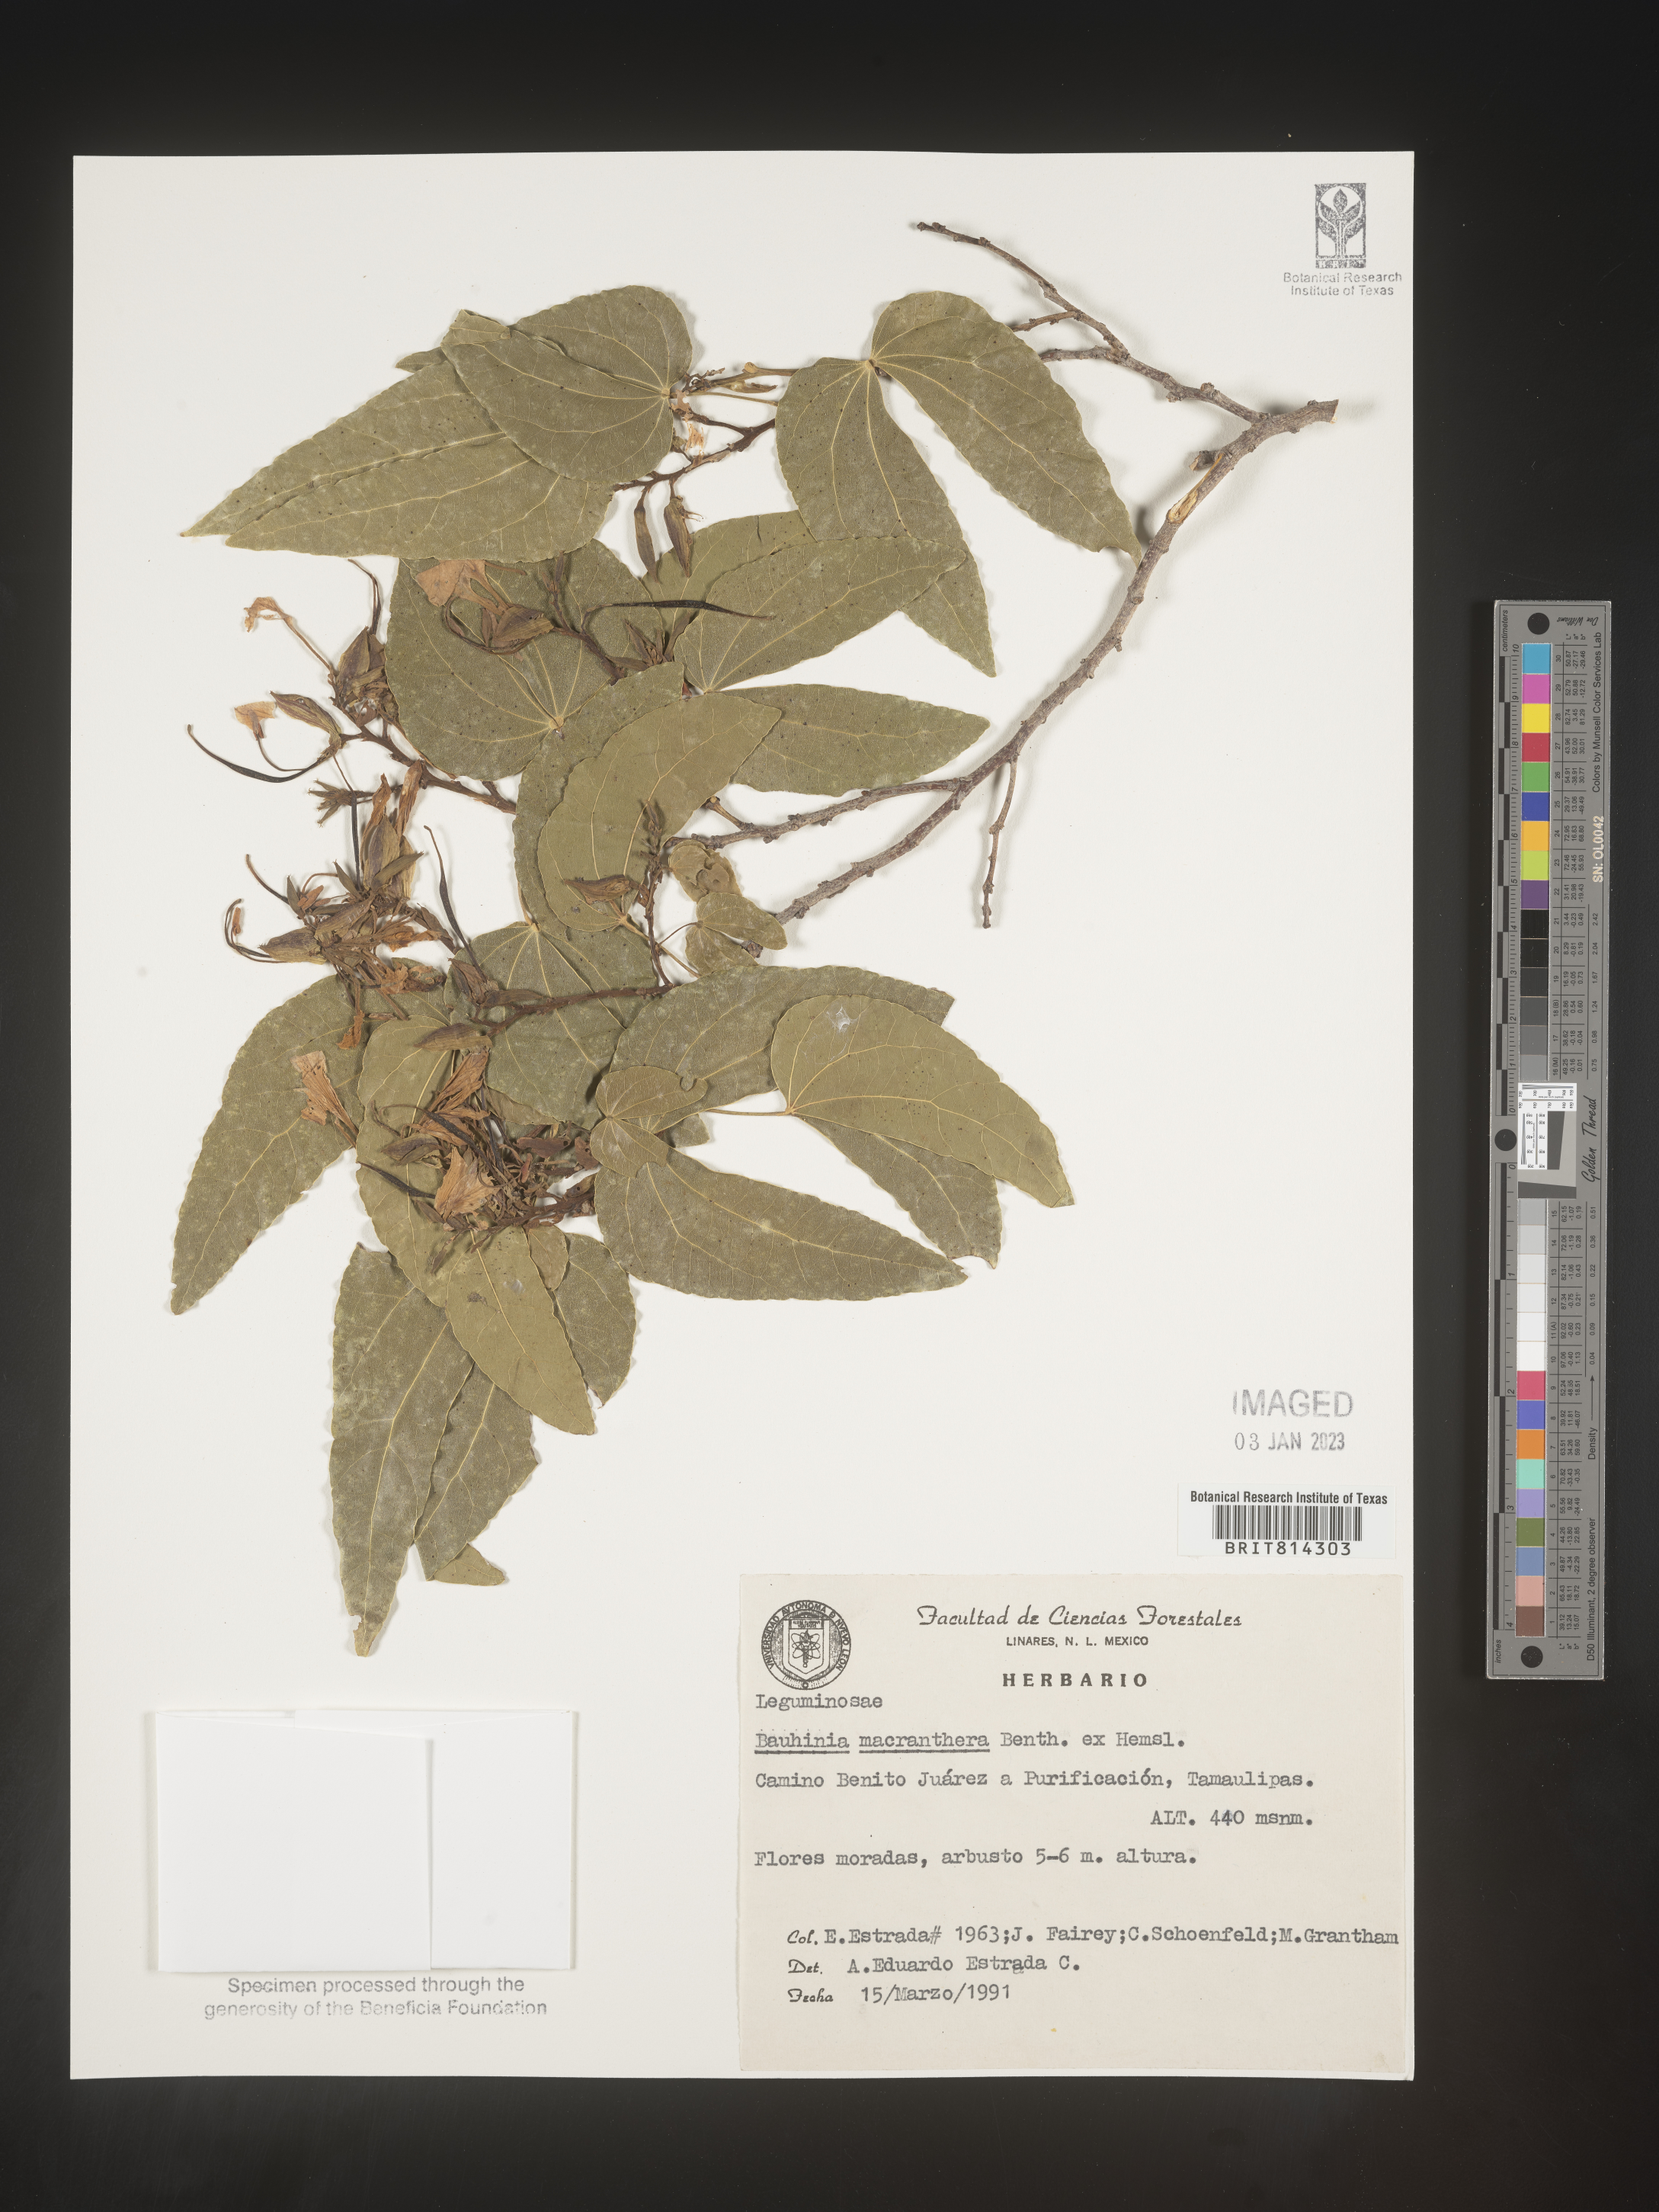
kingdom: Plantae
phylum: Tracheophyta
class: Magnoliopsida
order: Fabales
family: Fabaceae
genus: Bauhinia
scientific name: Bauhinia
